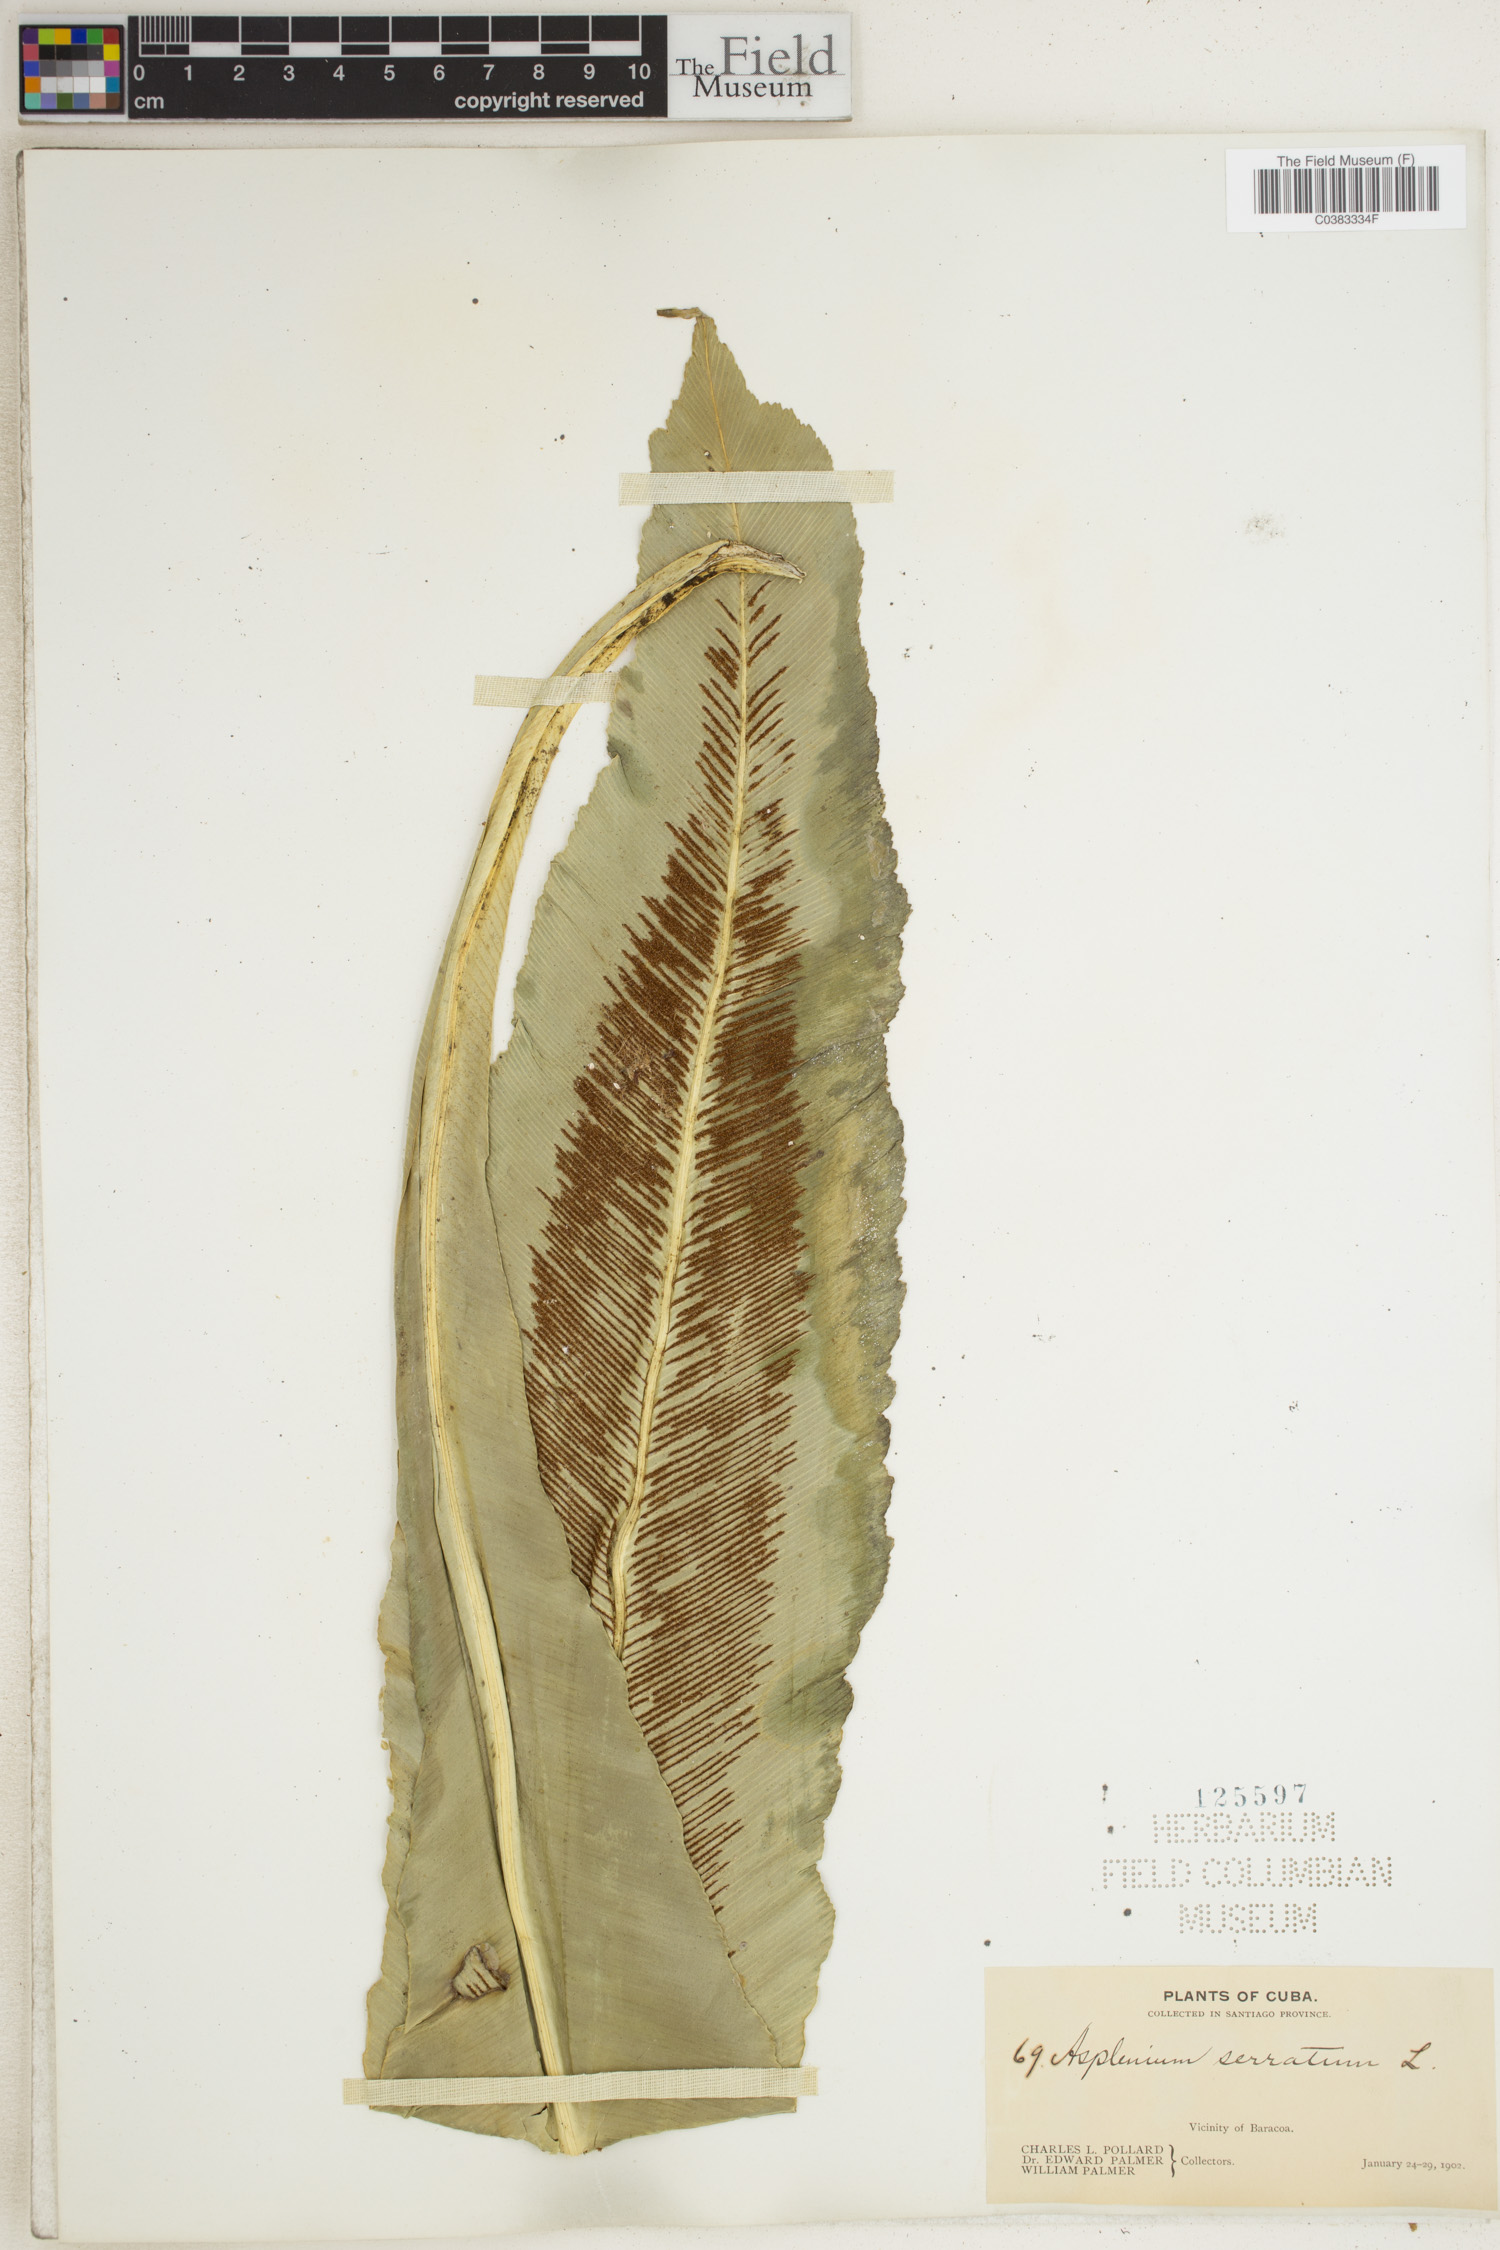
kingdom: Plantae
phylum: Tracheophyta
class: Polypodiopsida
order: Polypodiales
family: Aspleniaceae
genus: Asplenium
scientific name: Asplenium serratum
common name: Wild birdnest fern
